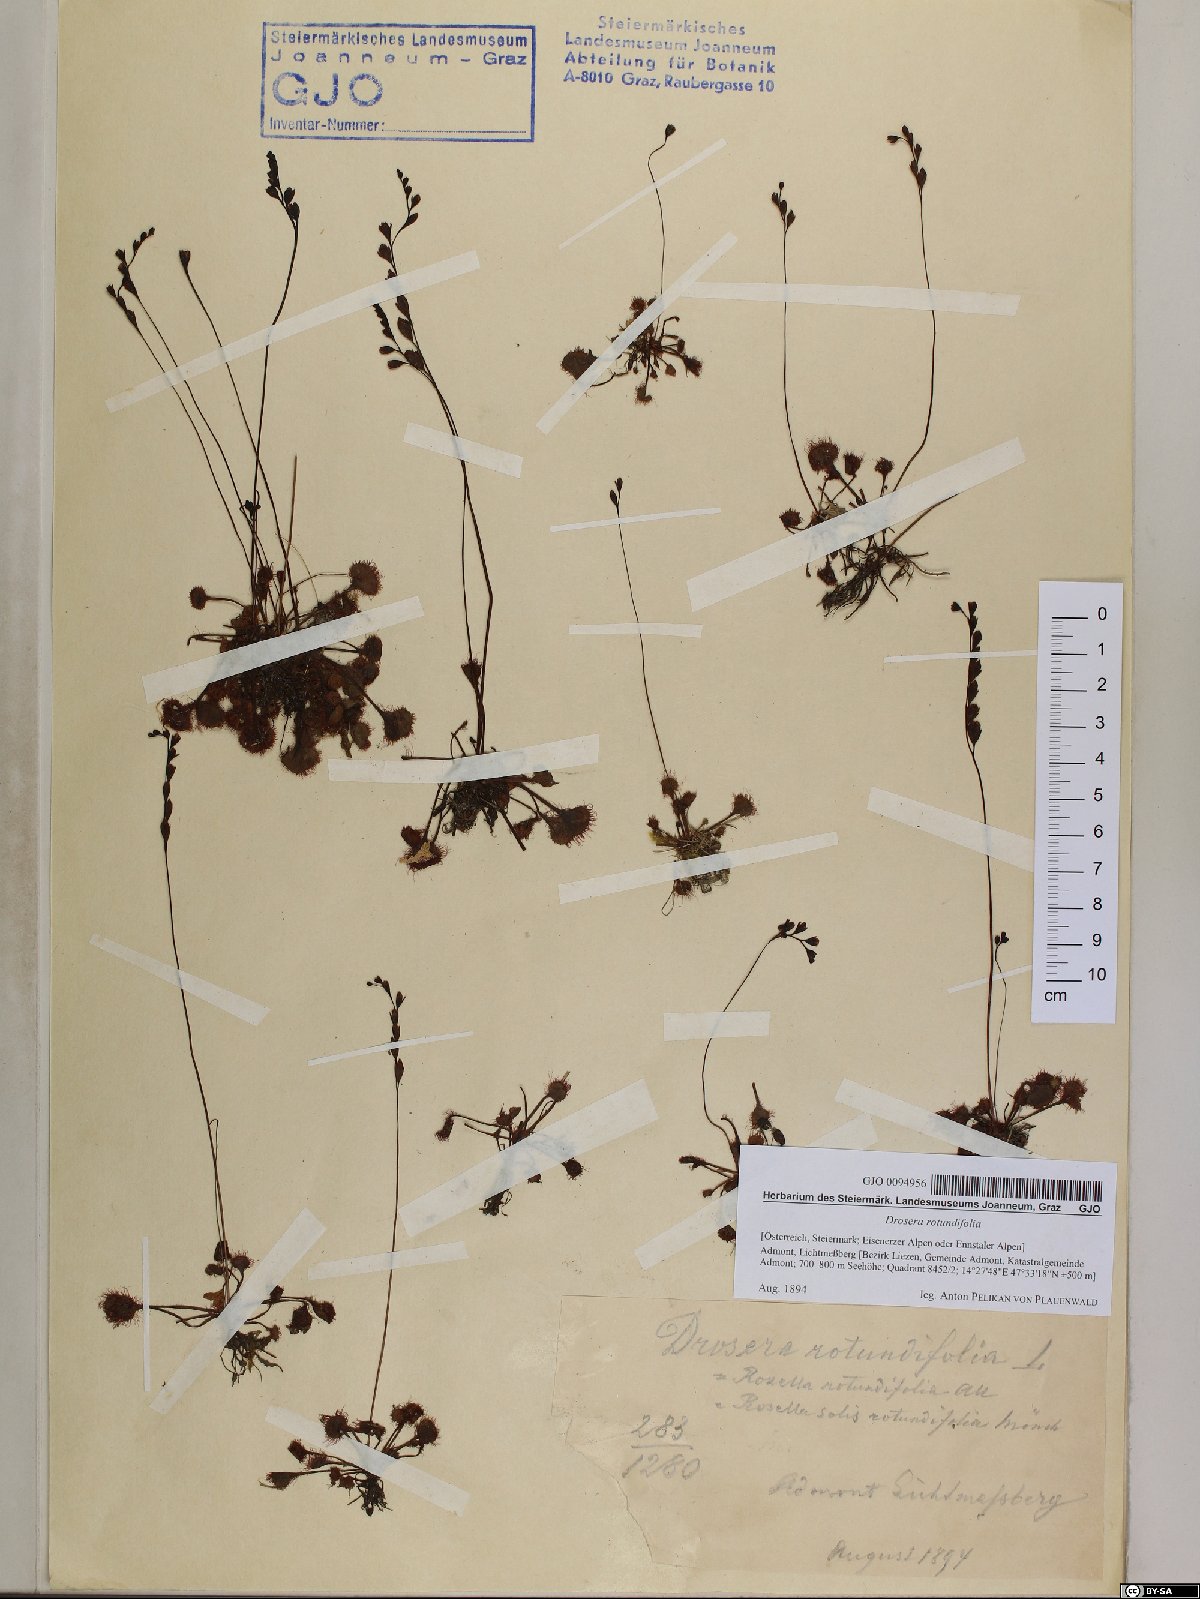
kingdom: Plantae
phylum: Tracheophyta
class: Magnoliopsida
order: Caryophyllales
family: Droseraceae
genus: Drosera
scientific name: Drosera rotundifolia
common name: Round-leaved sundew
